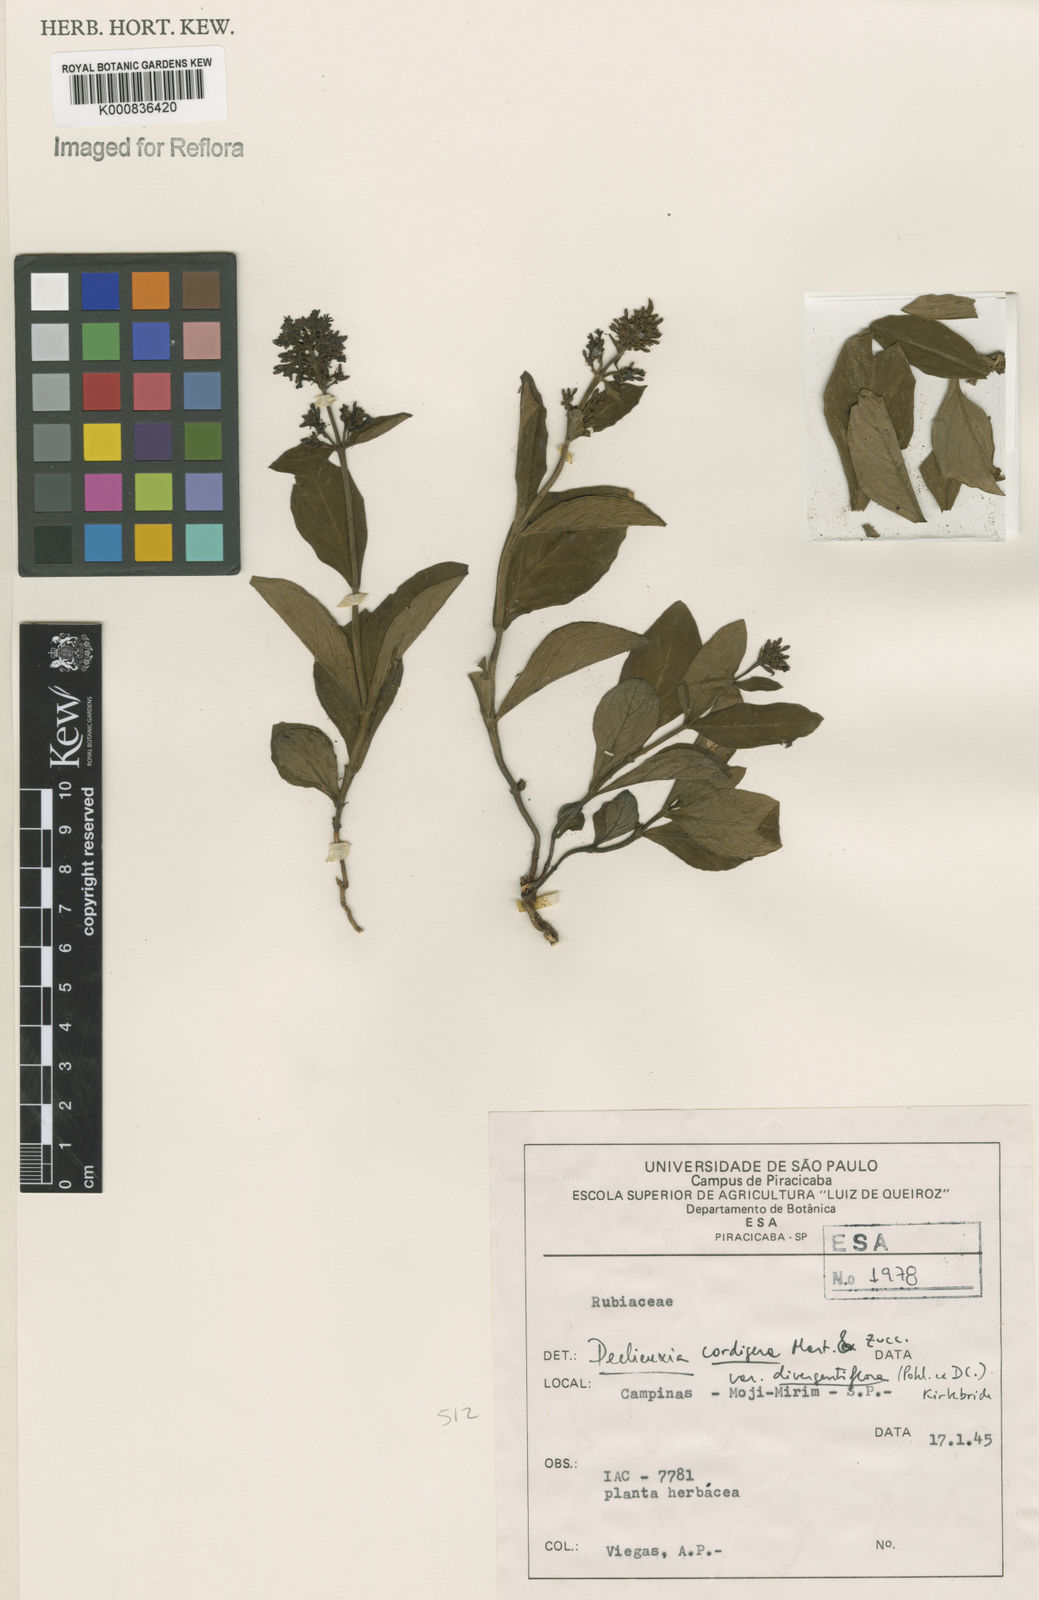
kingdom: Plantae
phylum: Tracheophyta
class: Magnoliopsida
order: Gentianales
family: Rubiaceae
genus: Declieuxia
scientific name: Declieuxia
